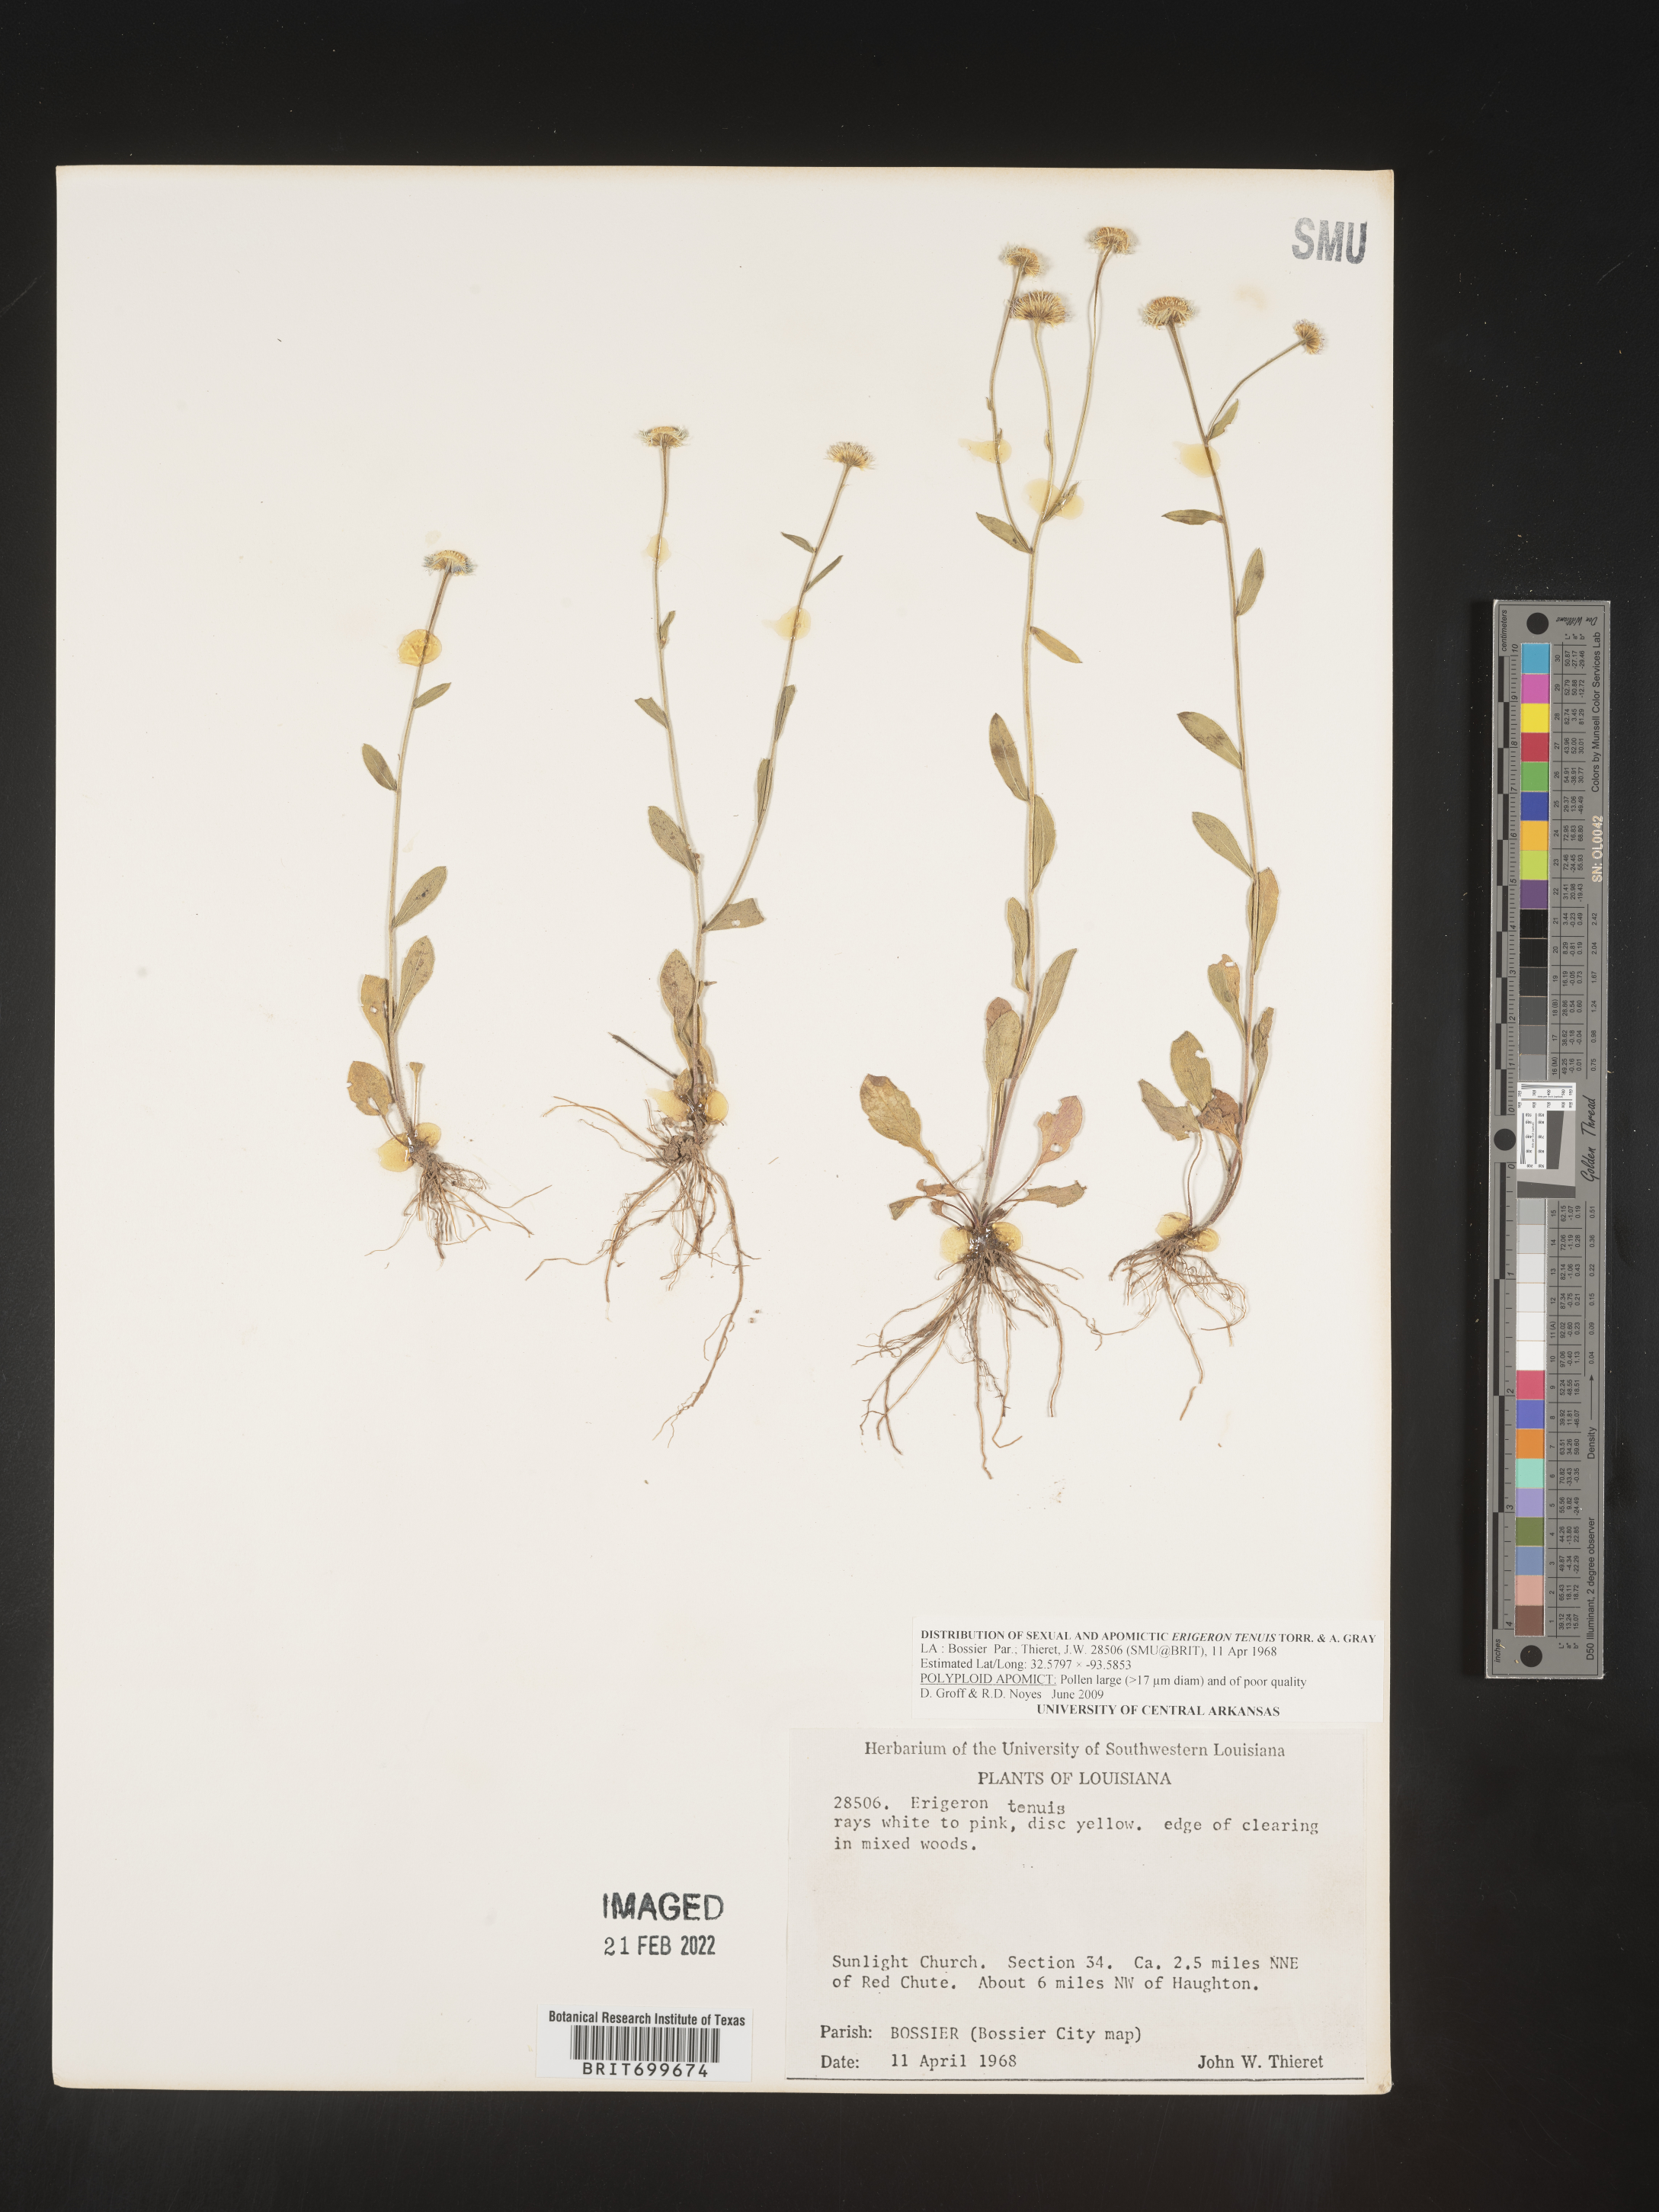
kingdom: Plantae
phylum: Tracheophyta
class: Magnoliopsida
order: Asterales
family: Asteraceae
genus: Erigeron
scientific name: Erigeron tenuis
